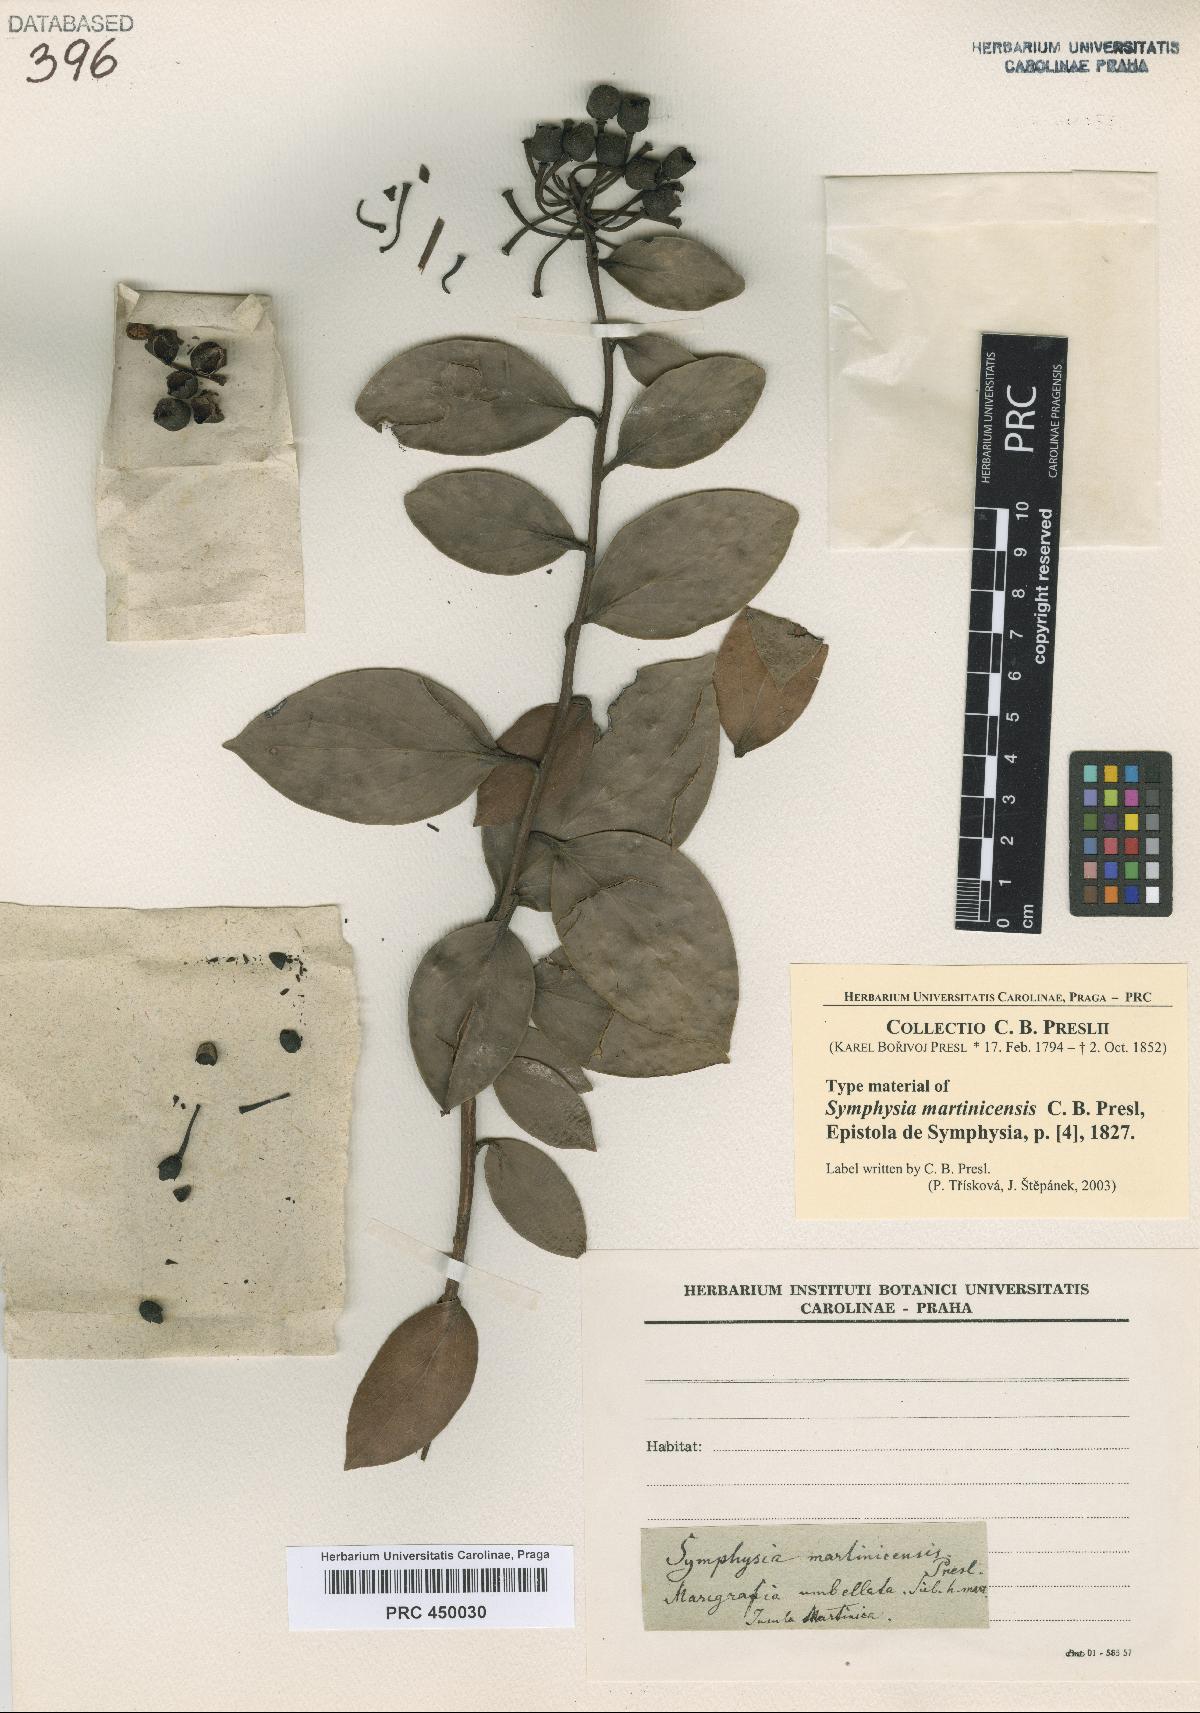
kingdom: Plantae
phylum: Tracheophyta
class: Magnoliopsida
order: Ericales
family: Ericaceae
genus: Symphysia
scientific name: Symphysia racemosa
